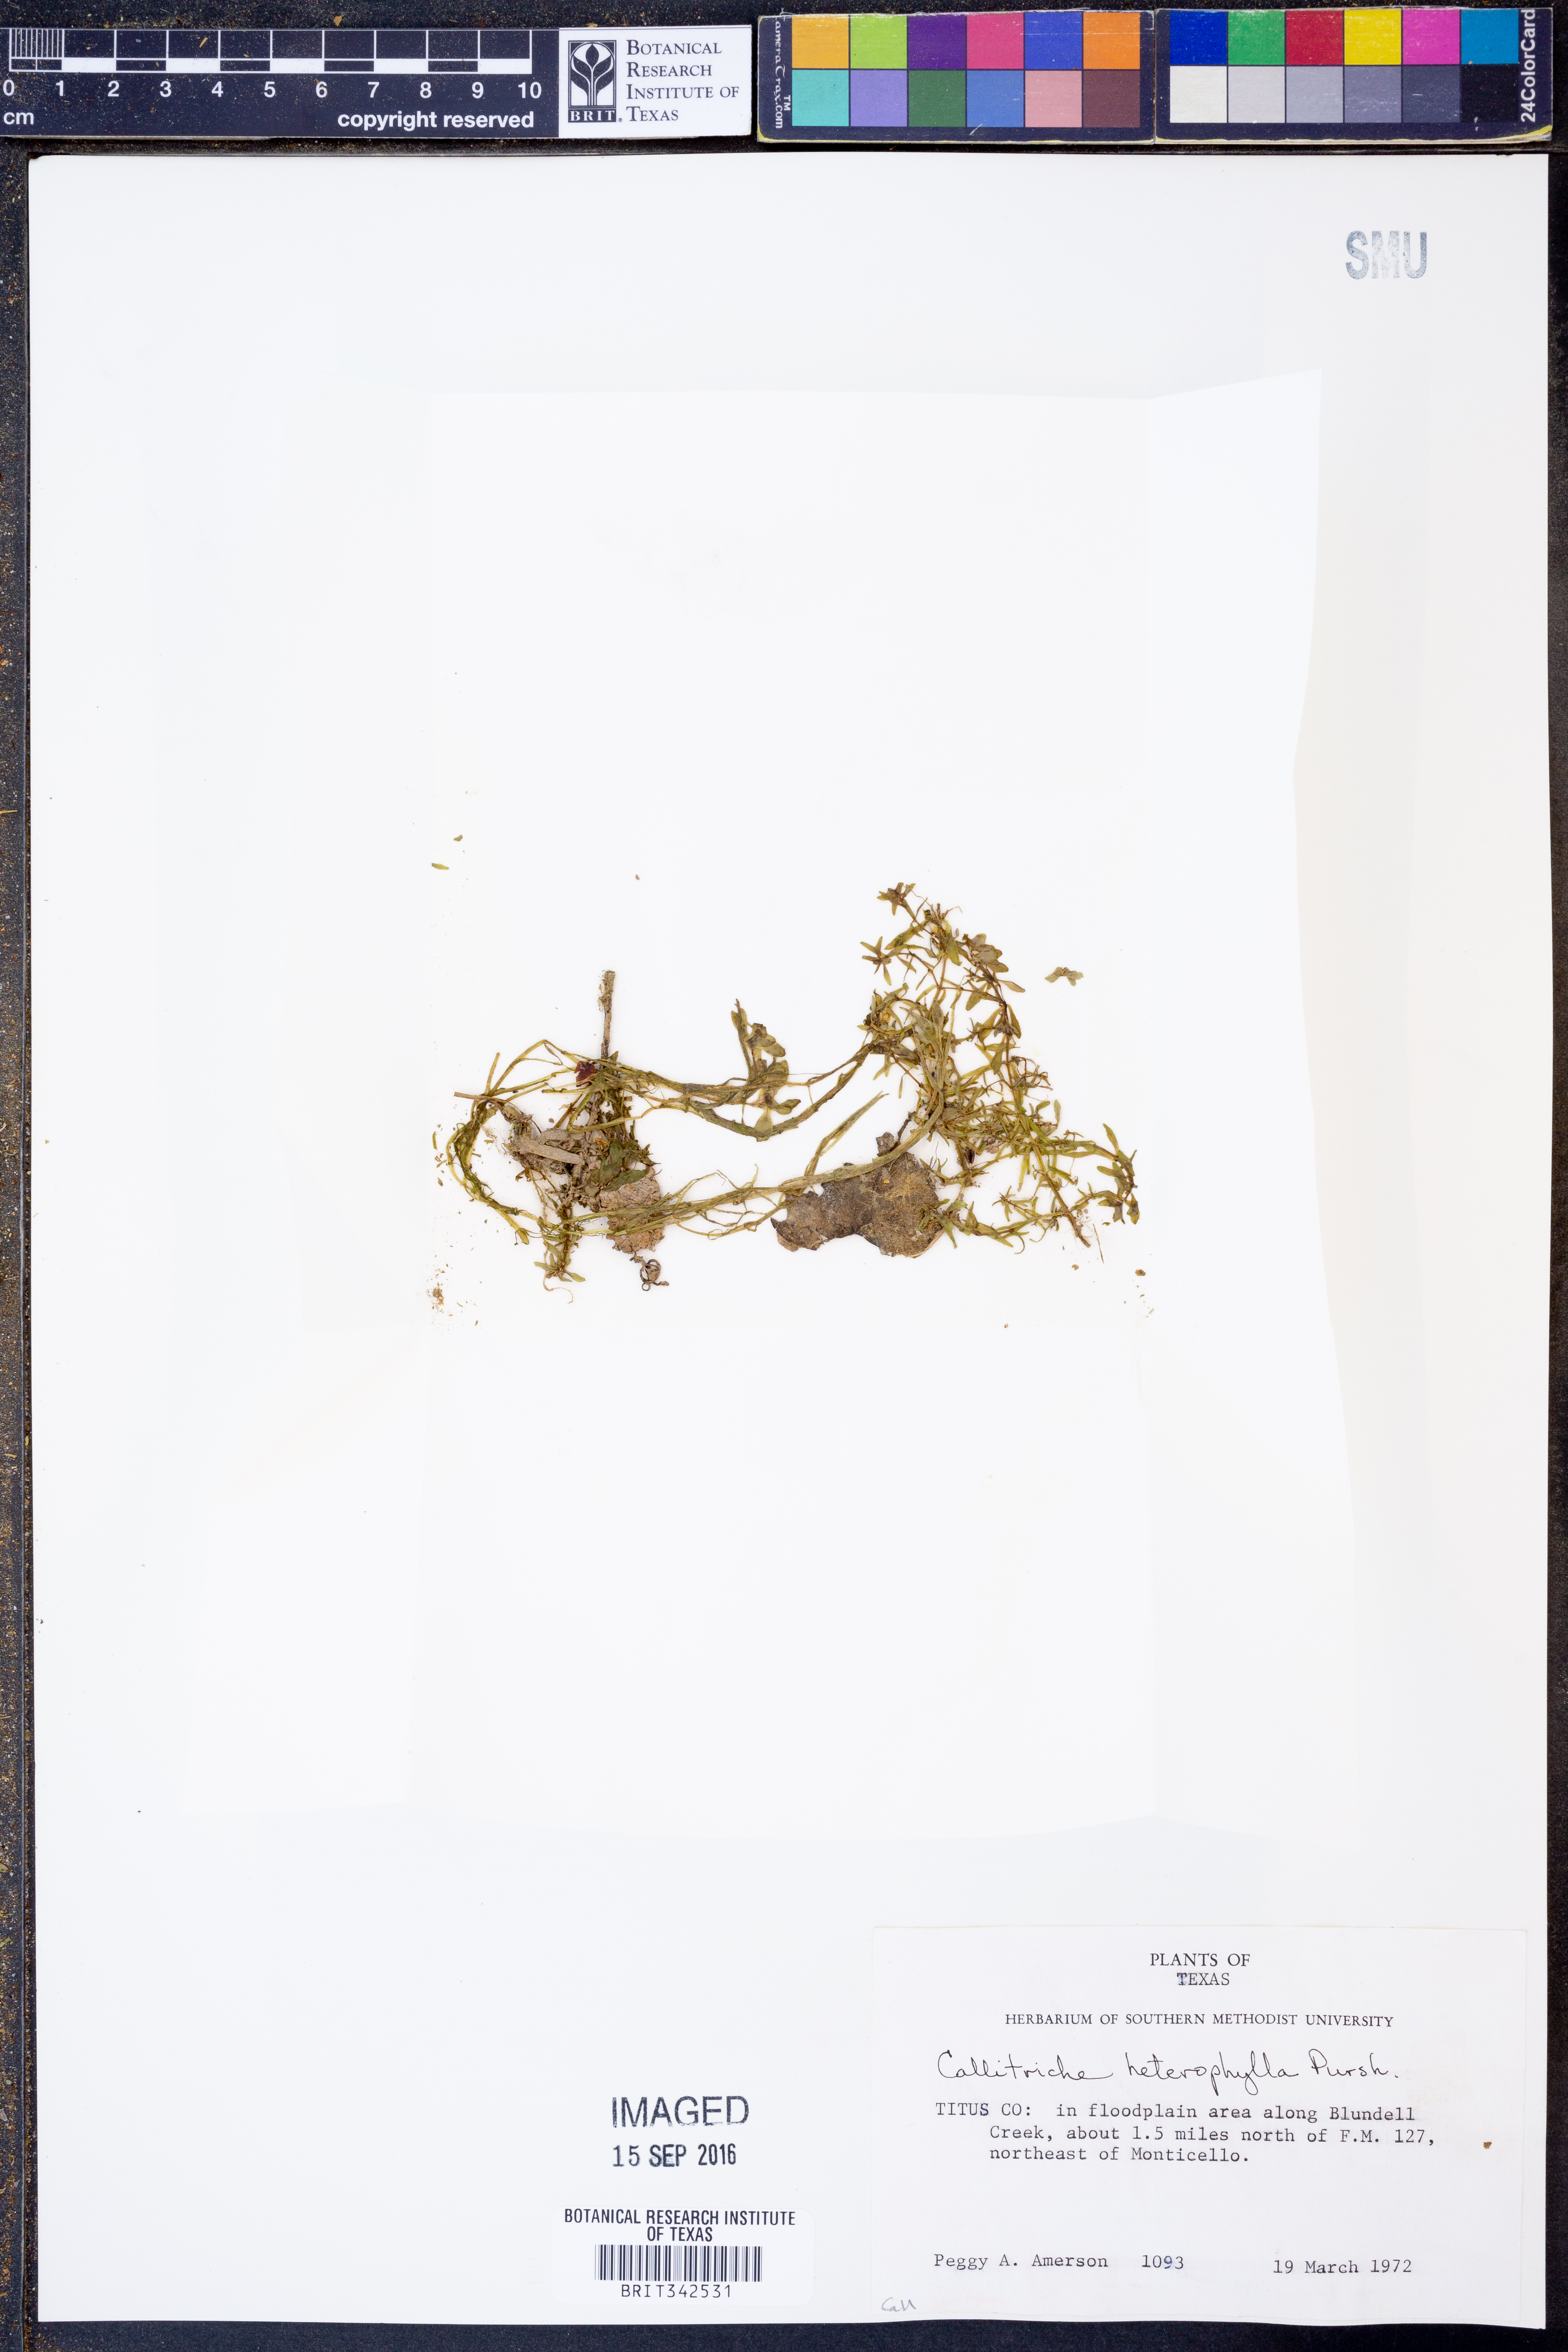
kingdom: Plantae
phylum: Tracheophyta
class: Magnoliopsida
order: Lamiales
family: Plantaginaceae
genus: Callitriche
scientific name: Callitriche heterophylla
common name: Two-headed water-starwort
